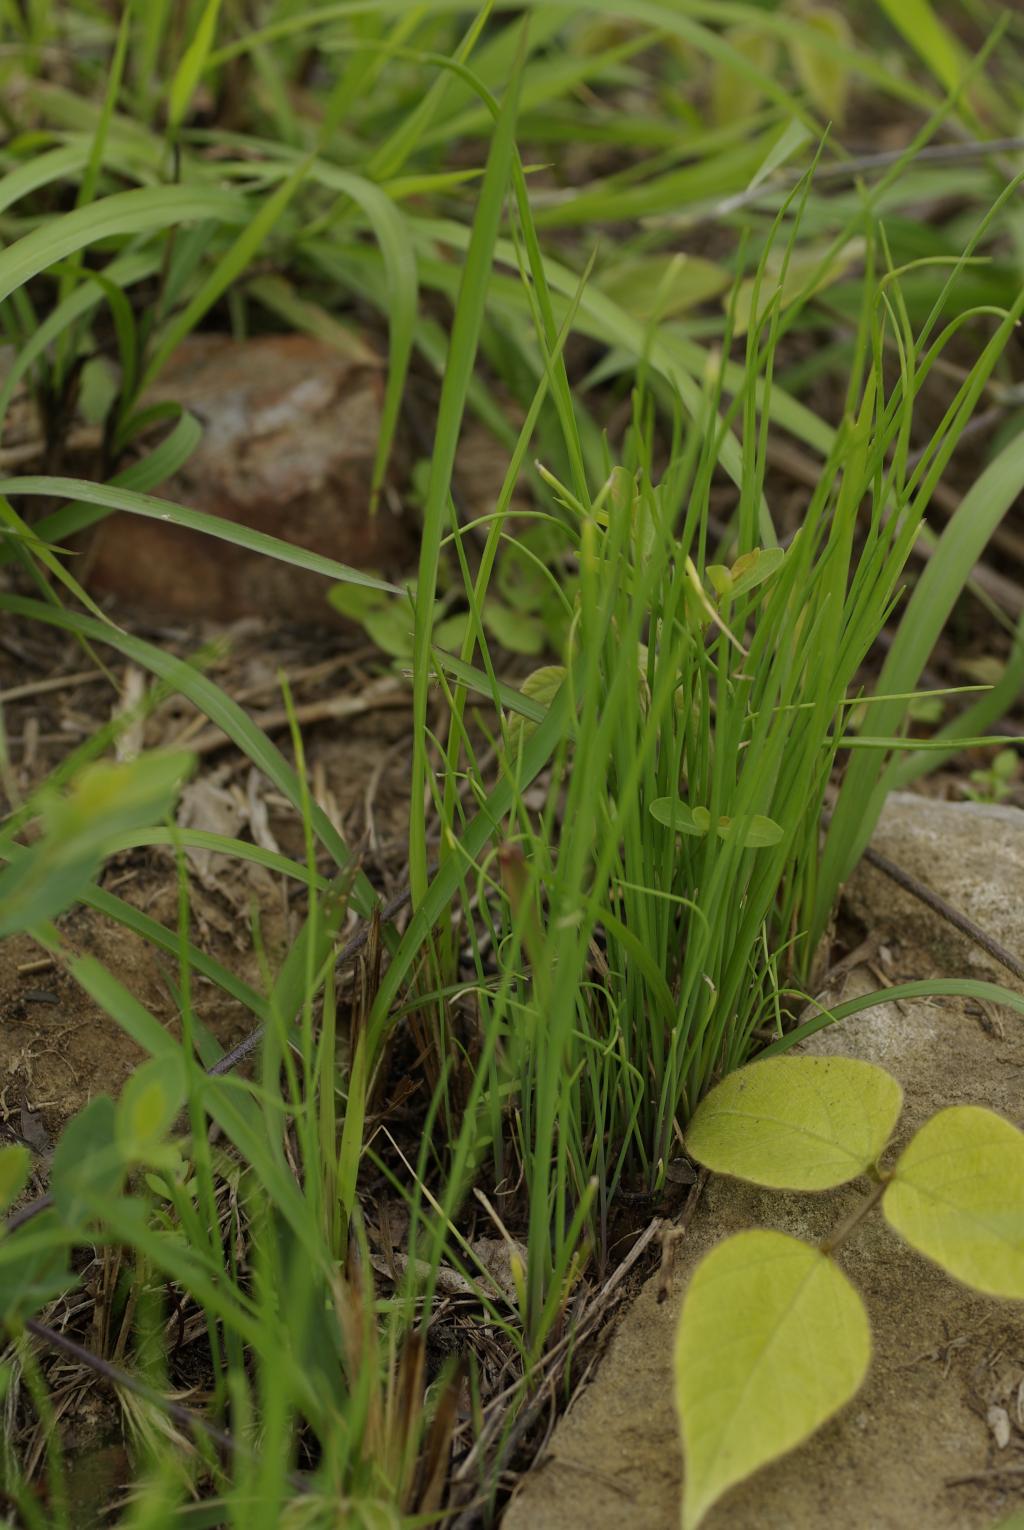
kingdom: Plantae
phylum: Tracheophyta
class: Liliopsida
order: Asparagales
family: Amaryllidaceae
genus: Allium
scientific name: Allium macrostemon
